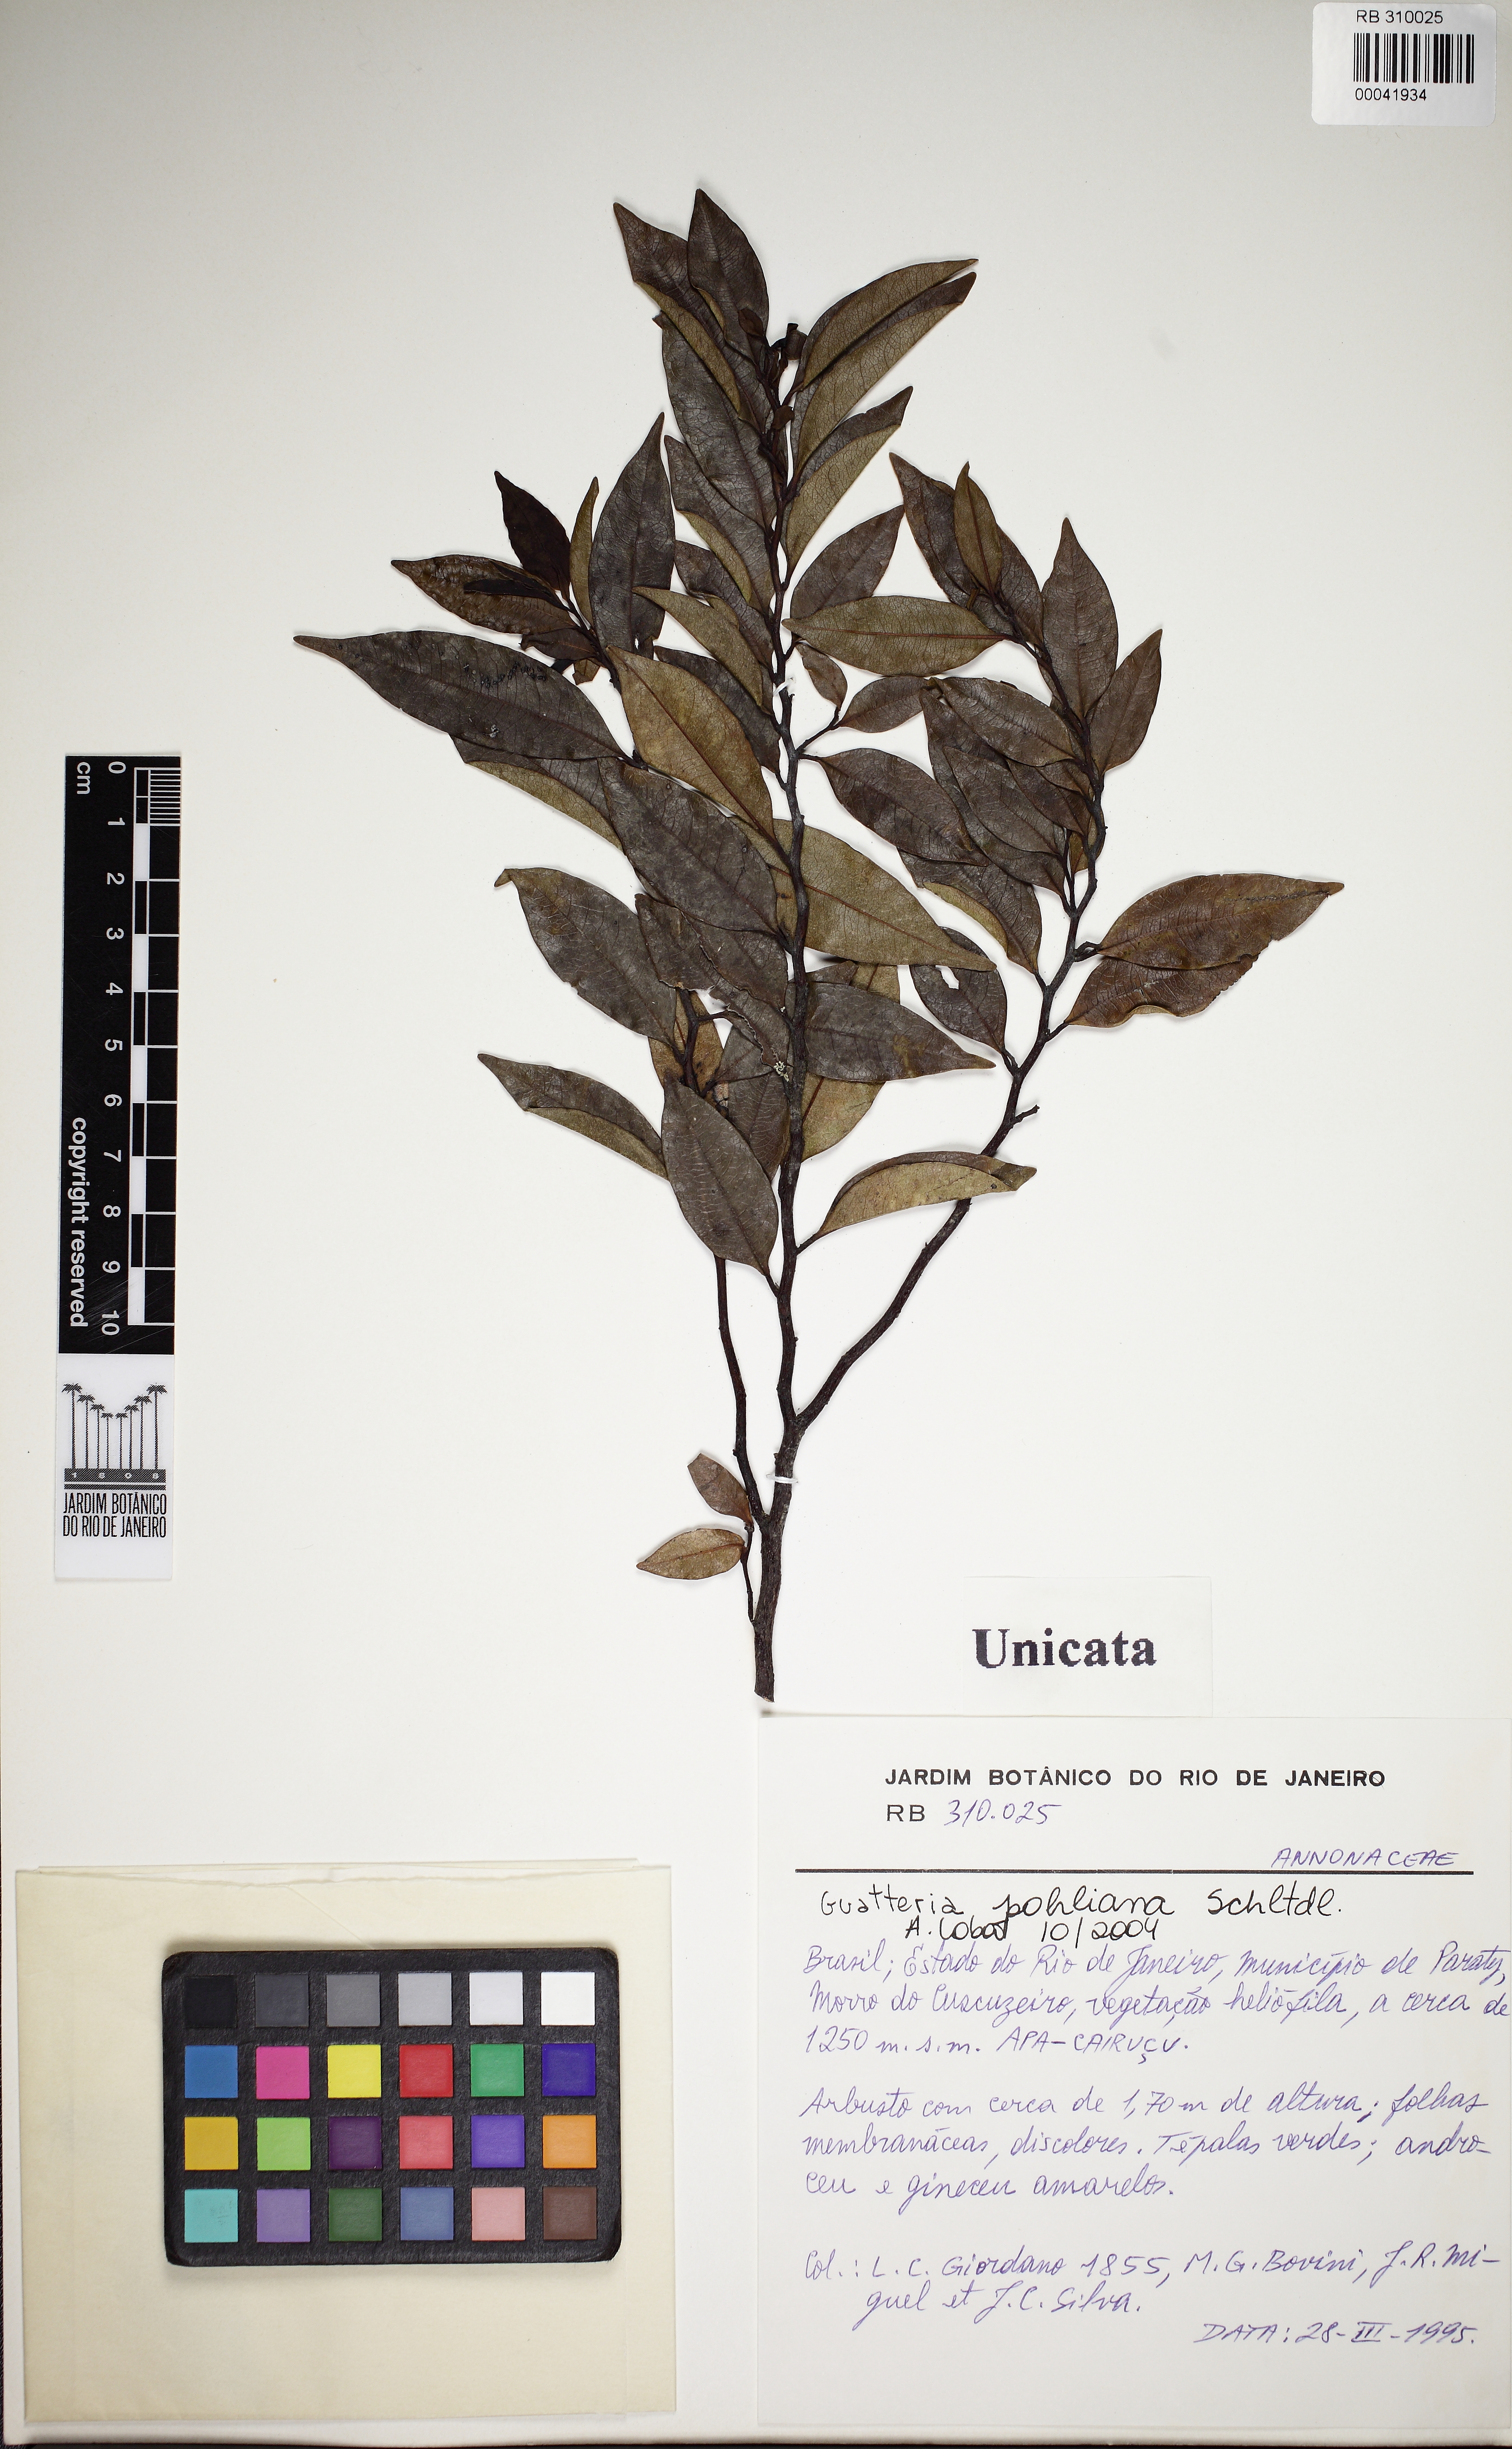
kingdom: Plantae
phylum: Tracheophyta
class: Magnoliopsida
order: Magnoliales
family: Annonaceae
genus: Guatteria
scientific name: Guatteria pohliana
